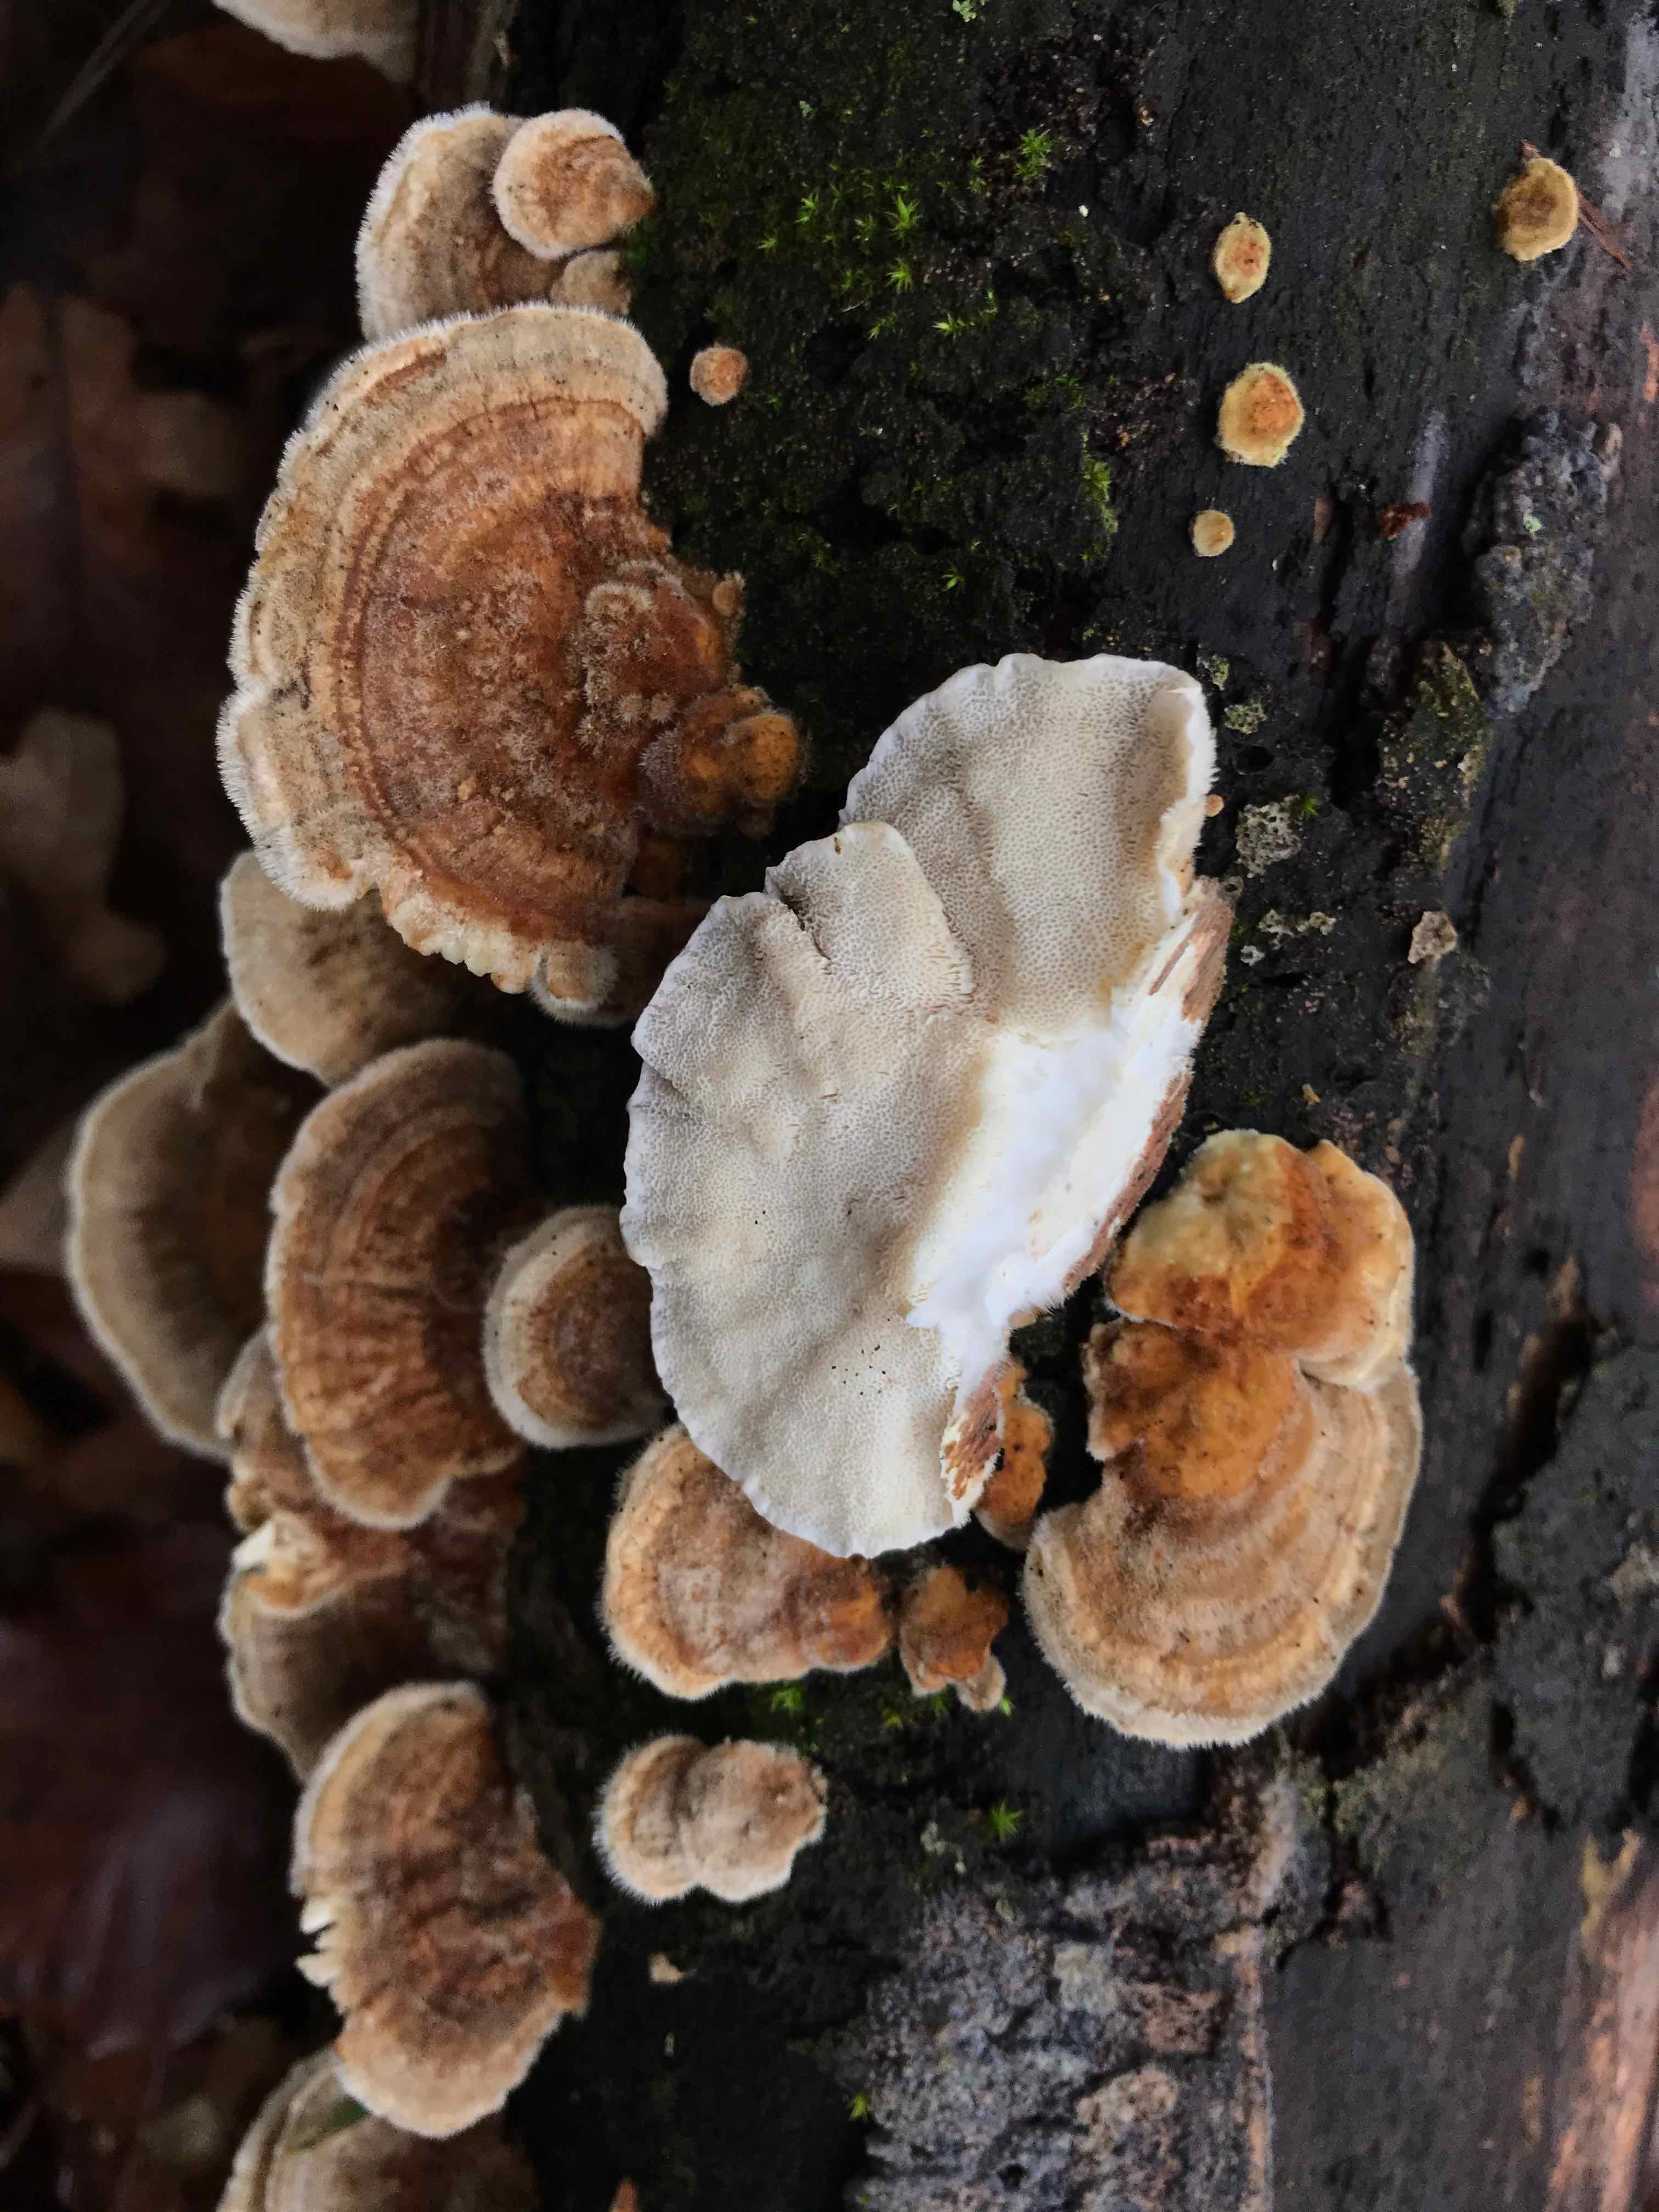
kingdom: Fungi
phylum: Basidiomycota
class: Agaricomycetes
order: Polyporales
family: Polyporaceae
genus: Trametes
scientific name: Trametes ochracea
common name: bæltet læderporesvamp
